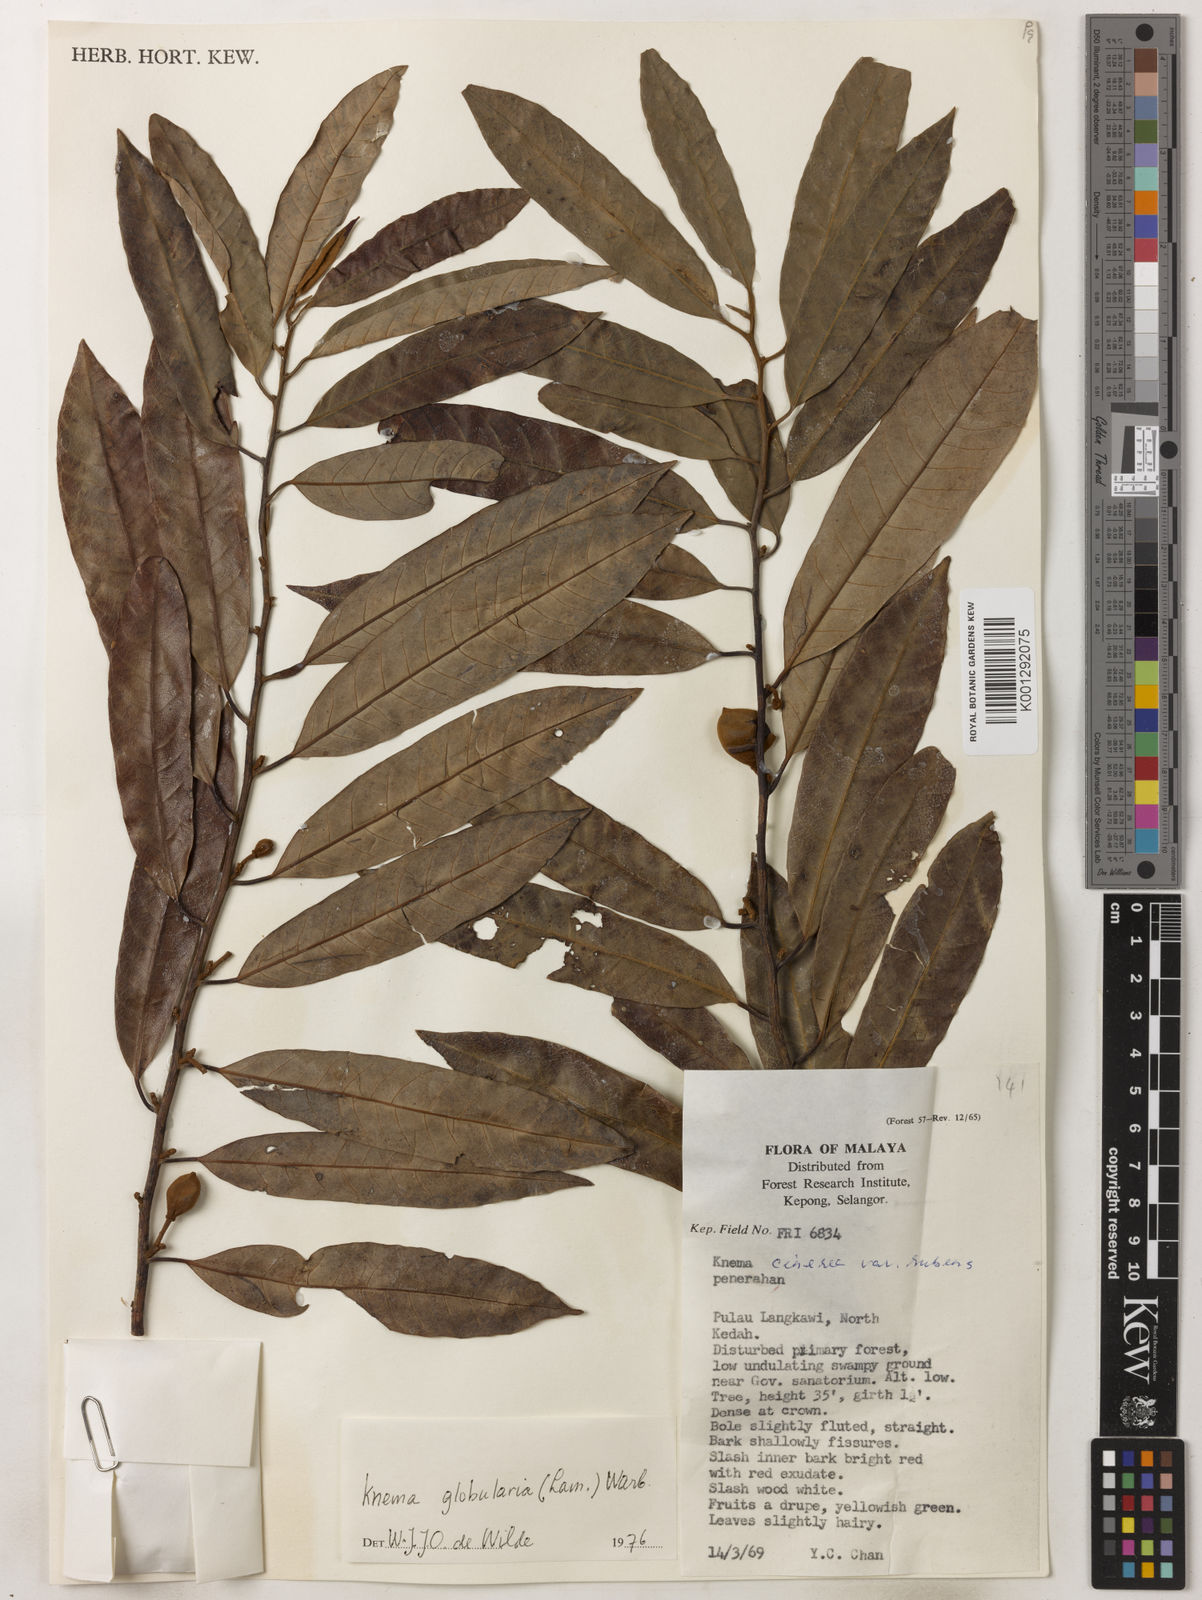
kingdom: Plantae
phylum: Tracheophyta
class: Magnoliopsida
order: Magnoliales
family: Myristicaceae
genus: Knema
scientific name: Knema globularia
